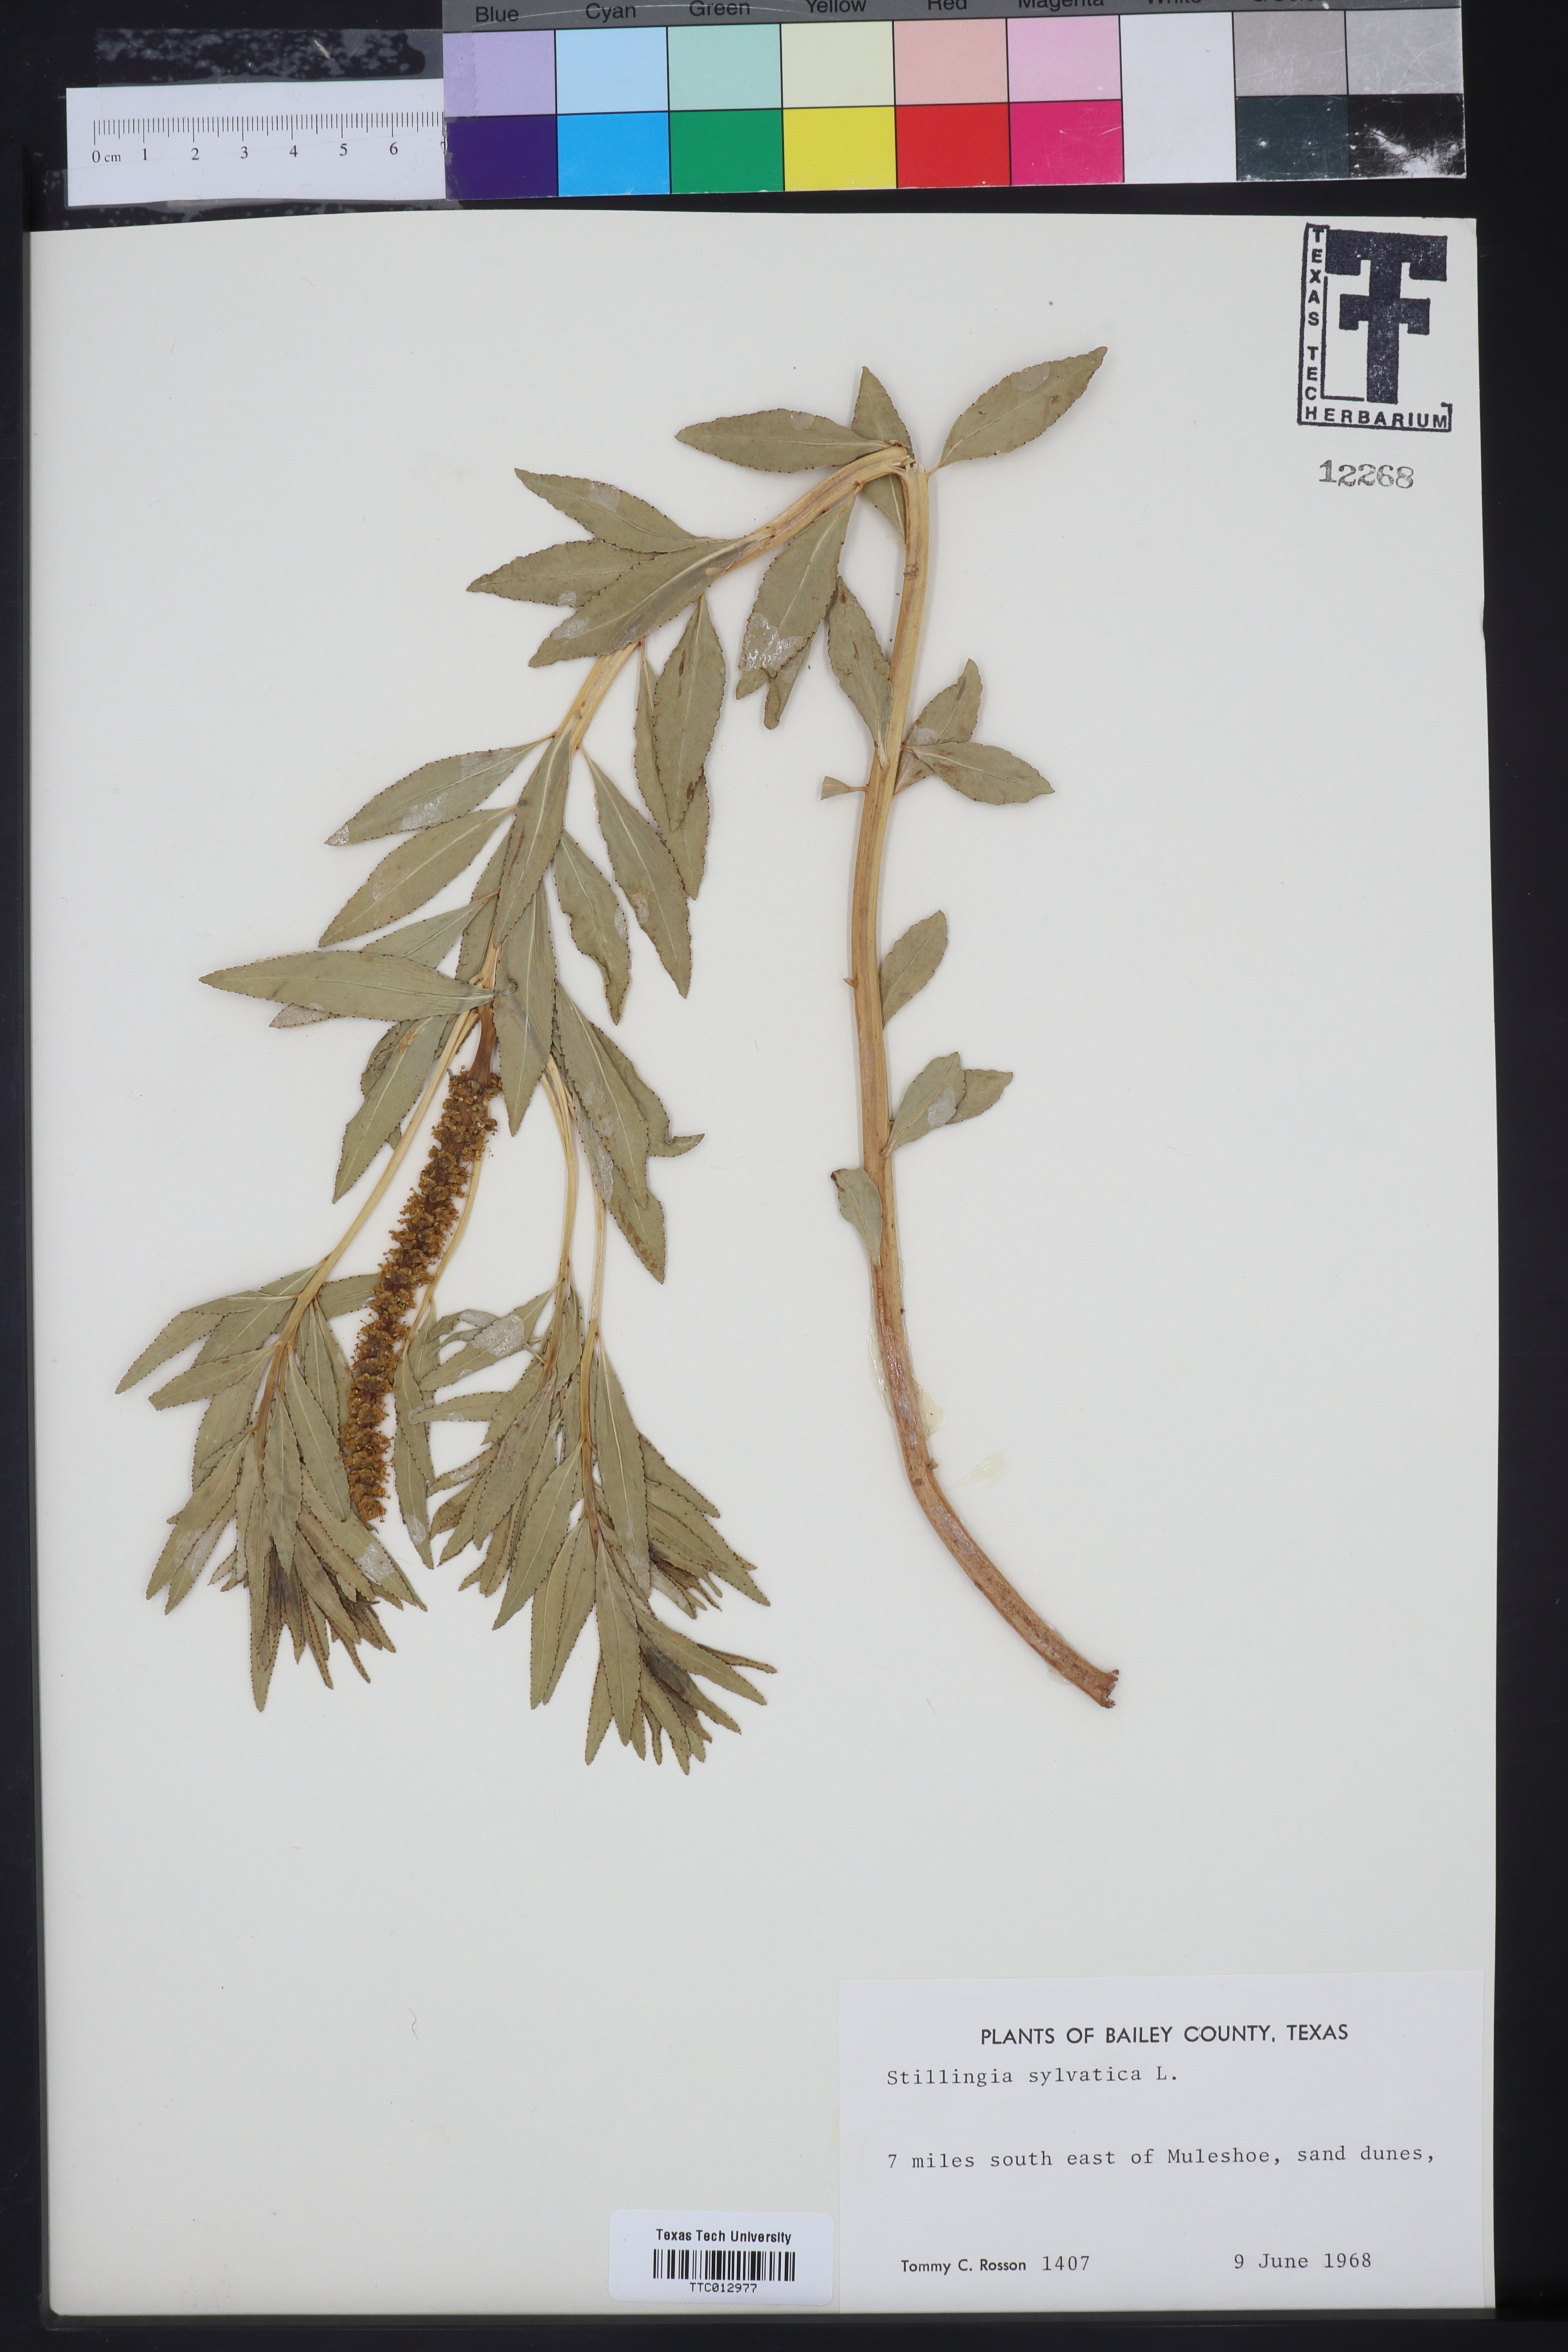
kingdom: Plantae
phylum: Tracheophyta
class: Magnoliopsida
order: Malpighiales
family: Euphorbiaceae
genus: Stillingia
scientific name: Stillingia sylvatica
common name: Queen's-delight
